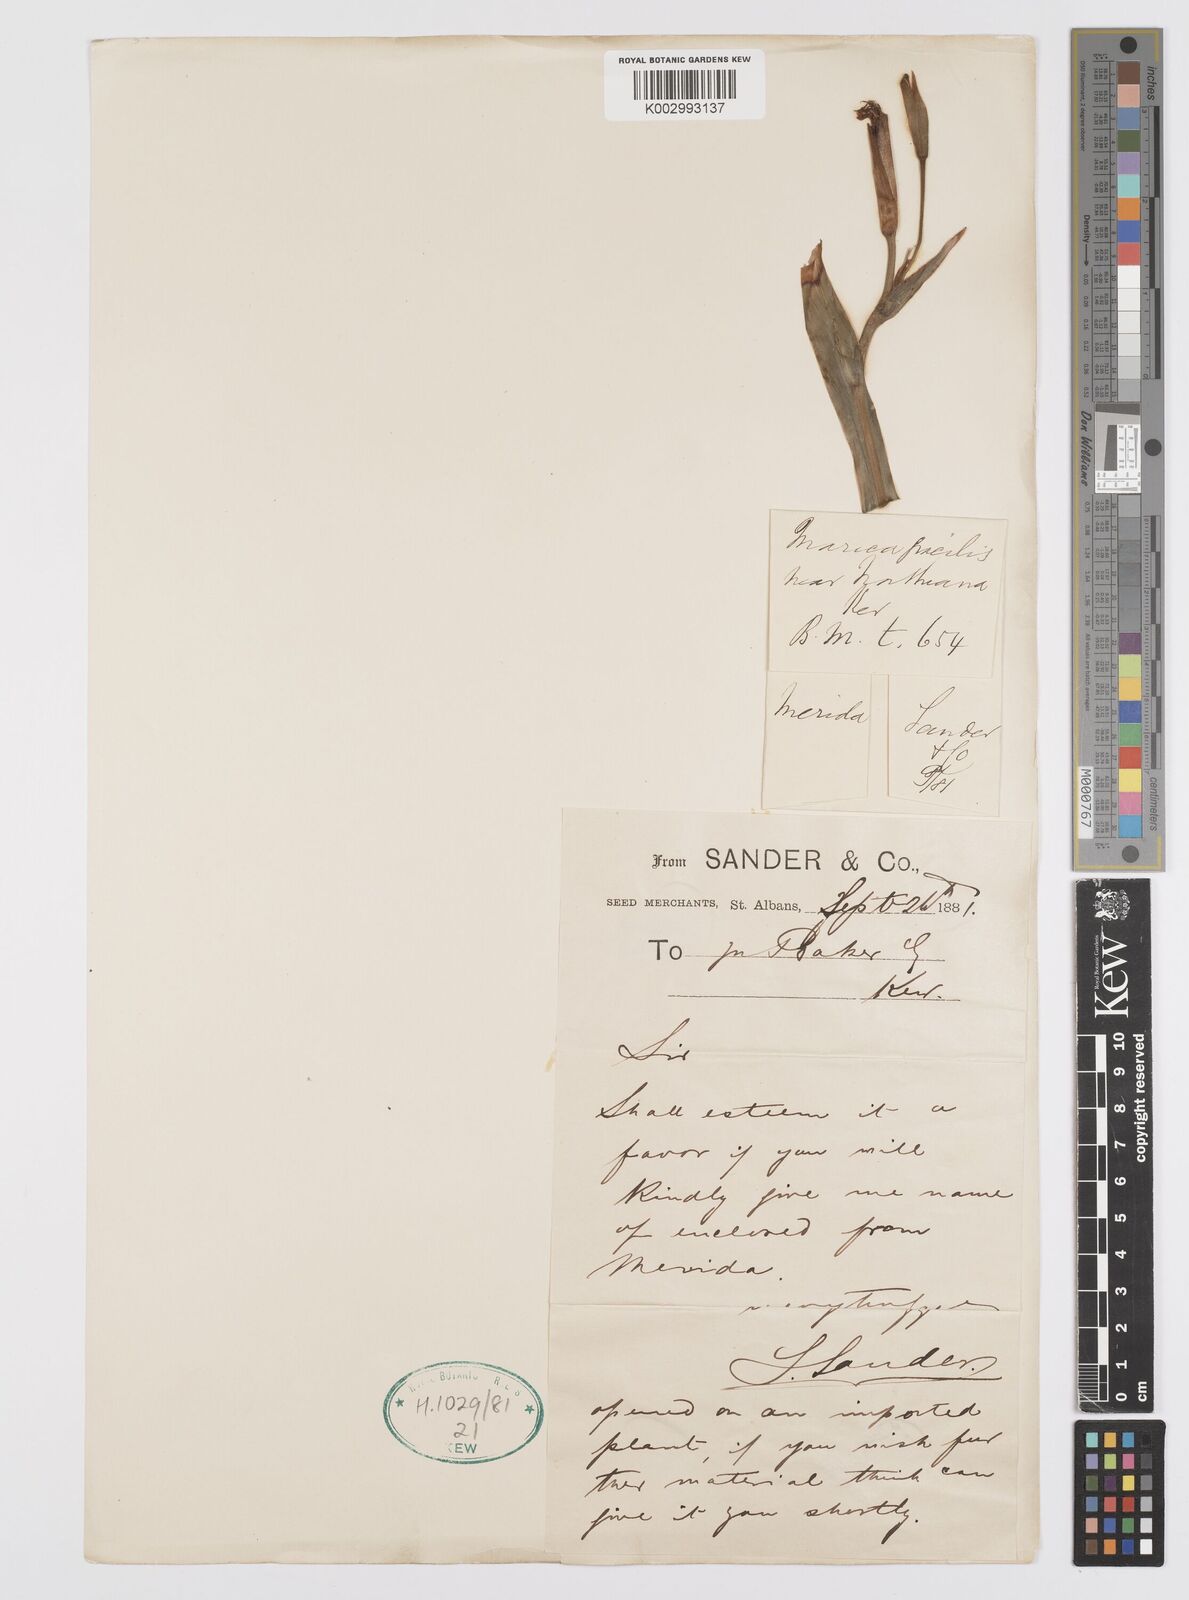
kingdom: Plantae
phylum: Tracheophyta
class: Liliopsida
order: Asparagales
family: Iridaceae
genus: Trimezia
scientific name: Trimezia gracilis
